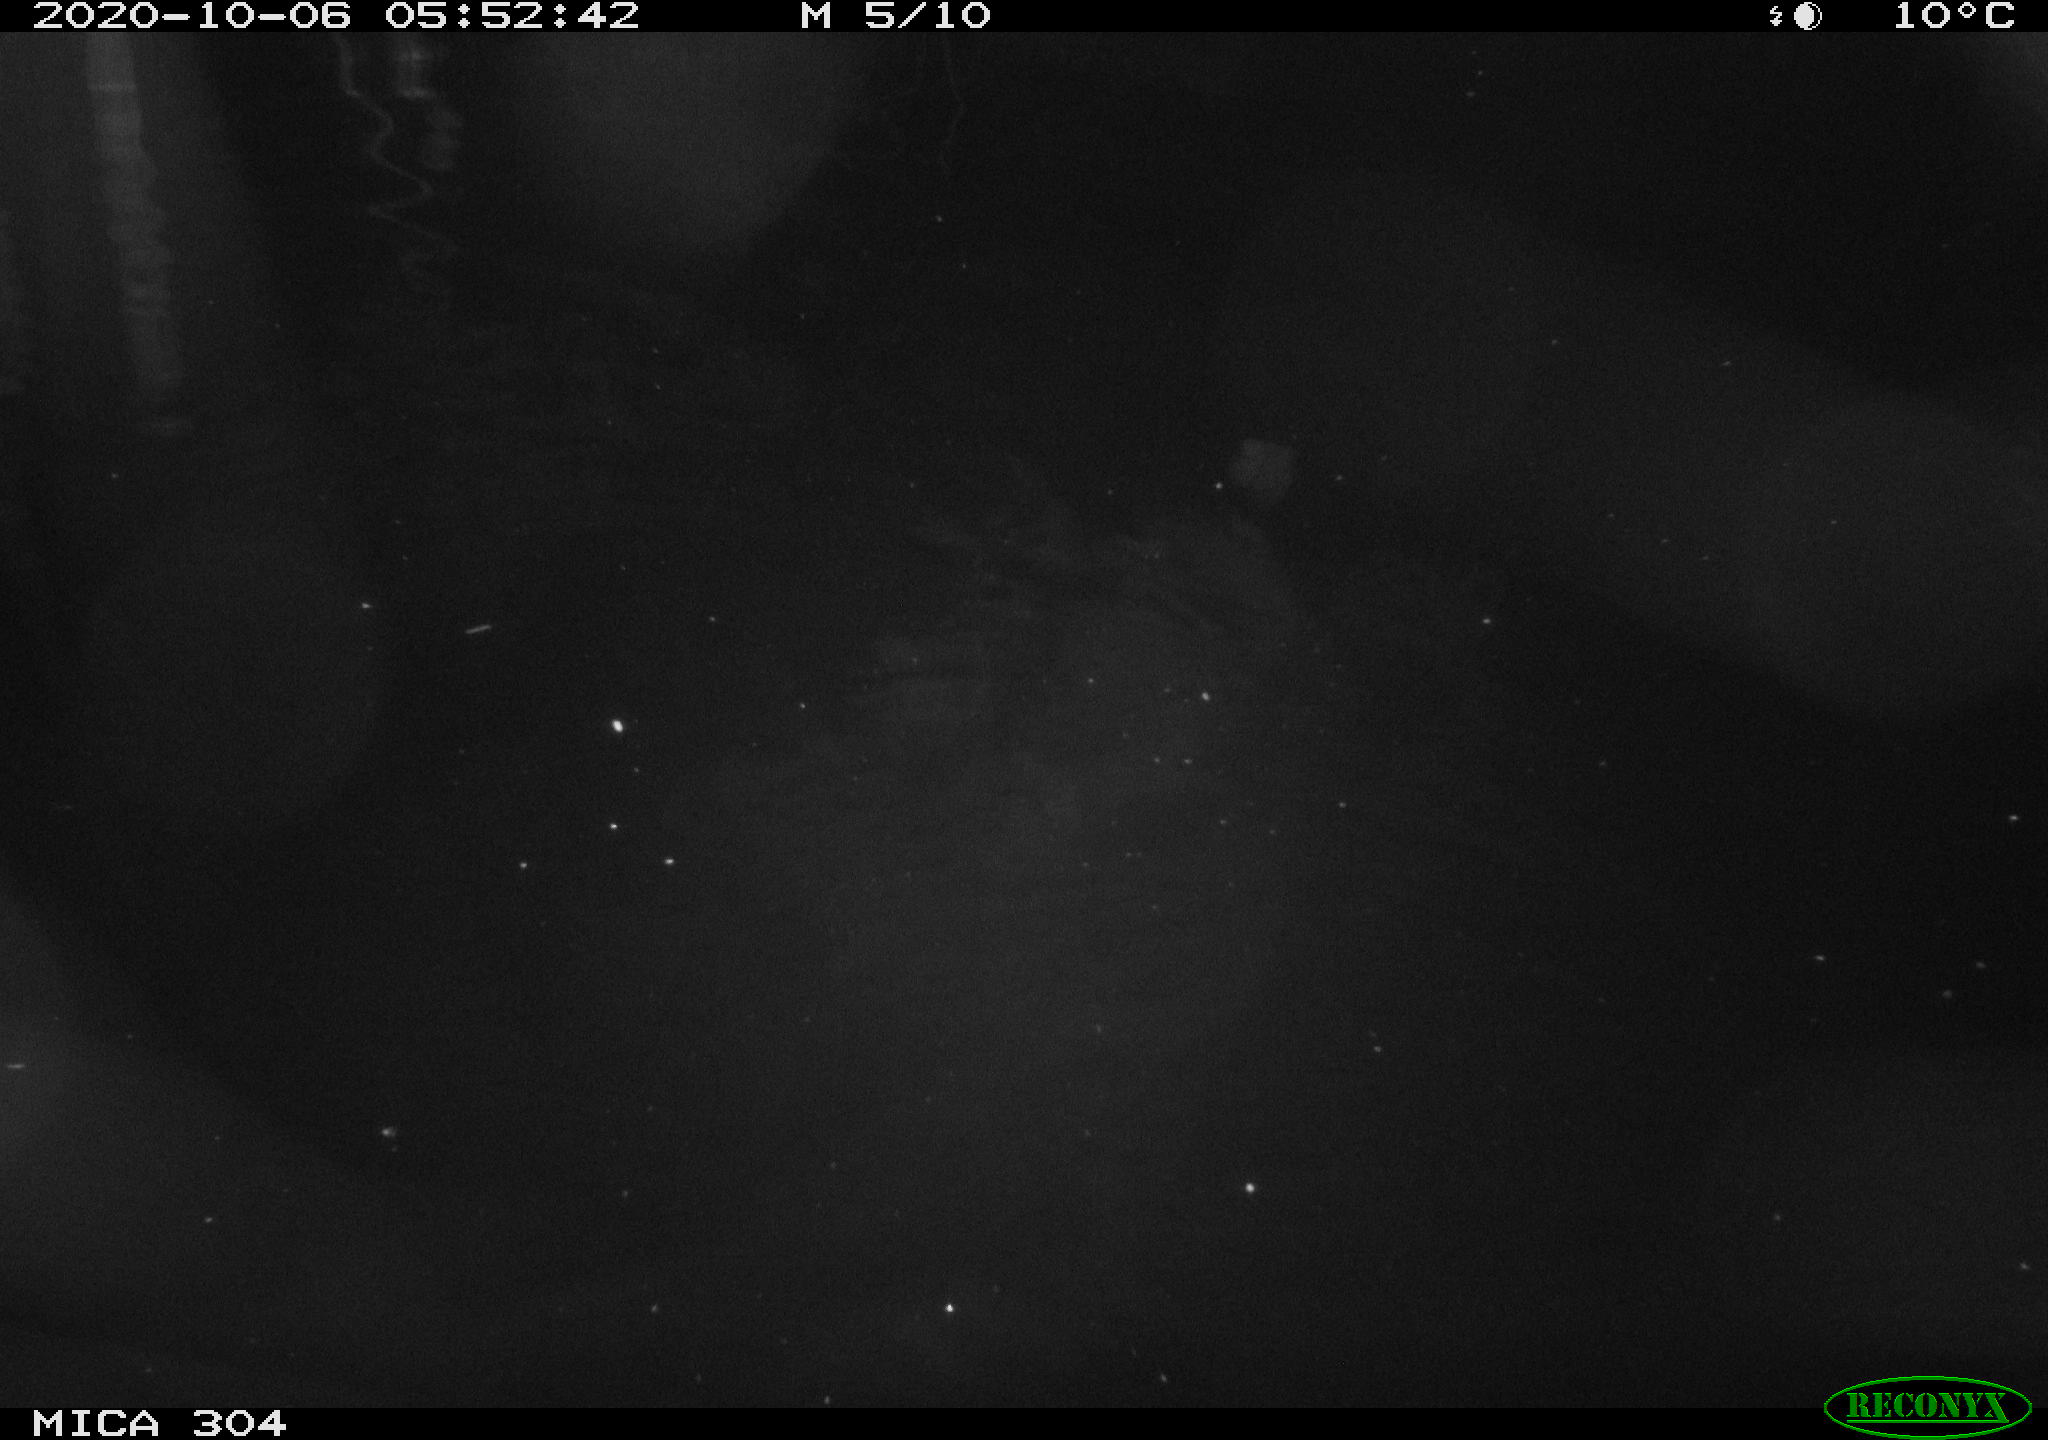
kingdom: Animalia
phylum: Chordata
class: Mammalia
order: Rodentia
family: Muridae
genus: Rattus
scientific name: Rattus norvegicus
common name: Brown rat
